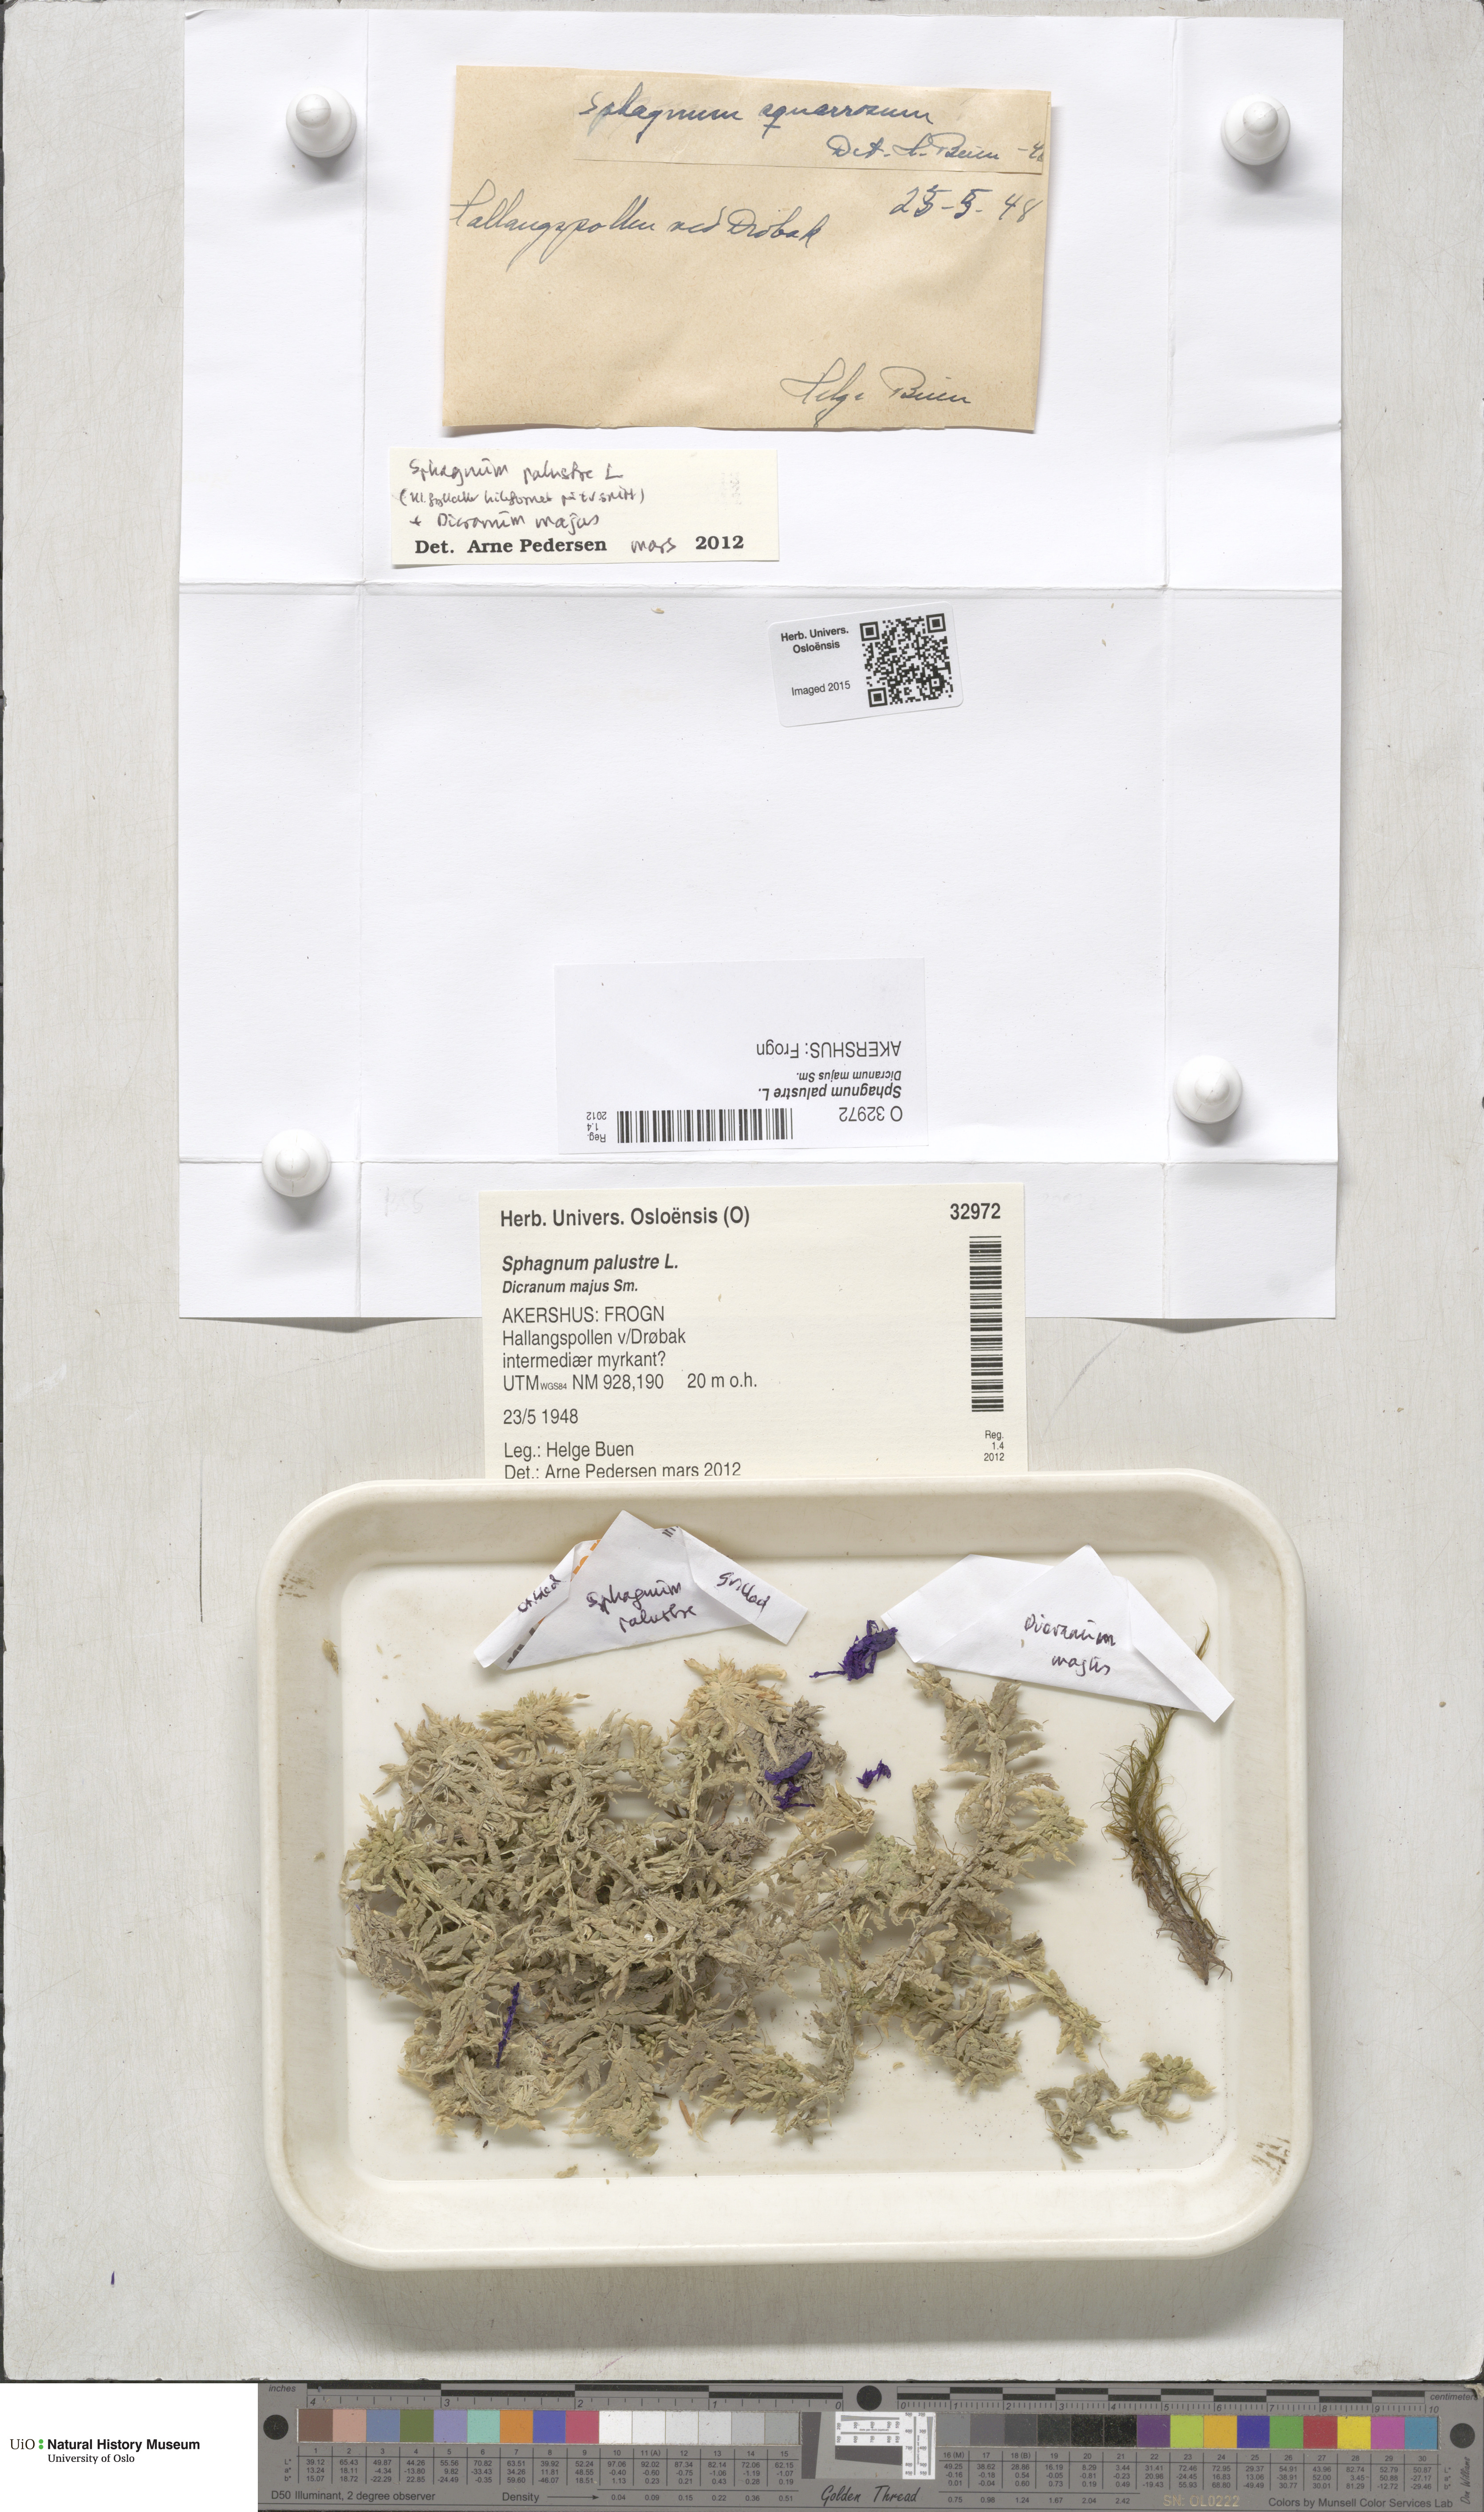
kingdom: Plantae
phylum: Bryophyta
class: Sphagnopsida
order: Sphagnales
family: Sphagnaceae
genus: Sphagnum
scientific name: Sphagnum palustre
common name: Blunt-leaved bog-moss
